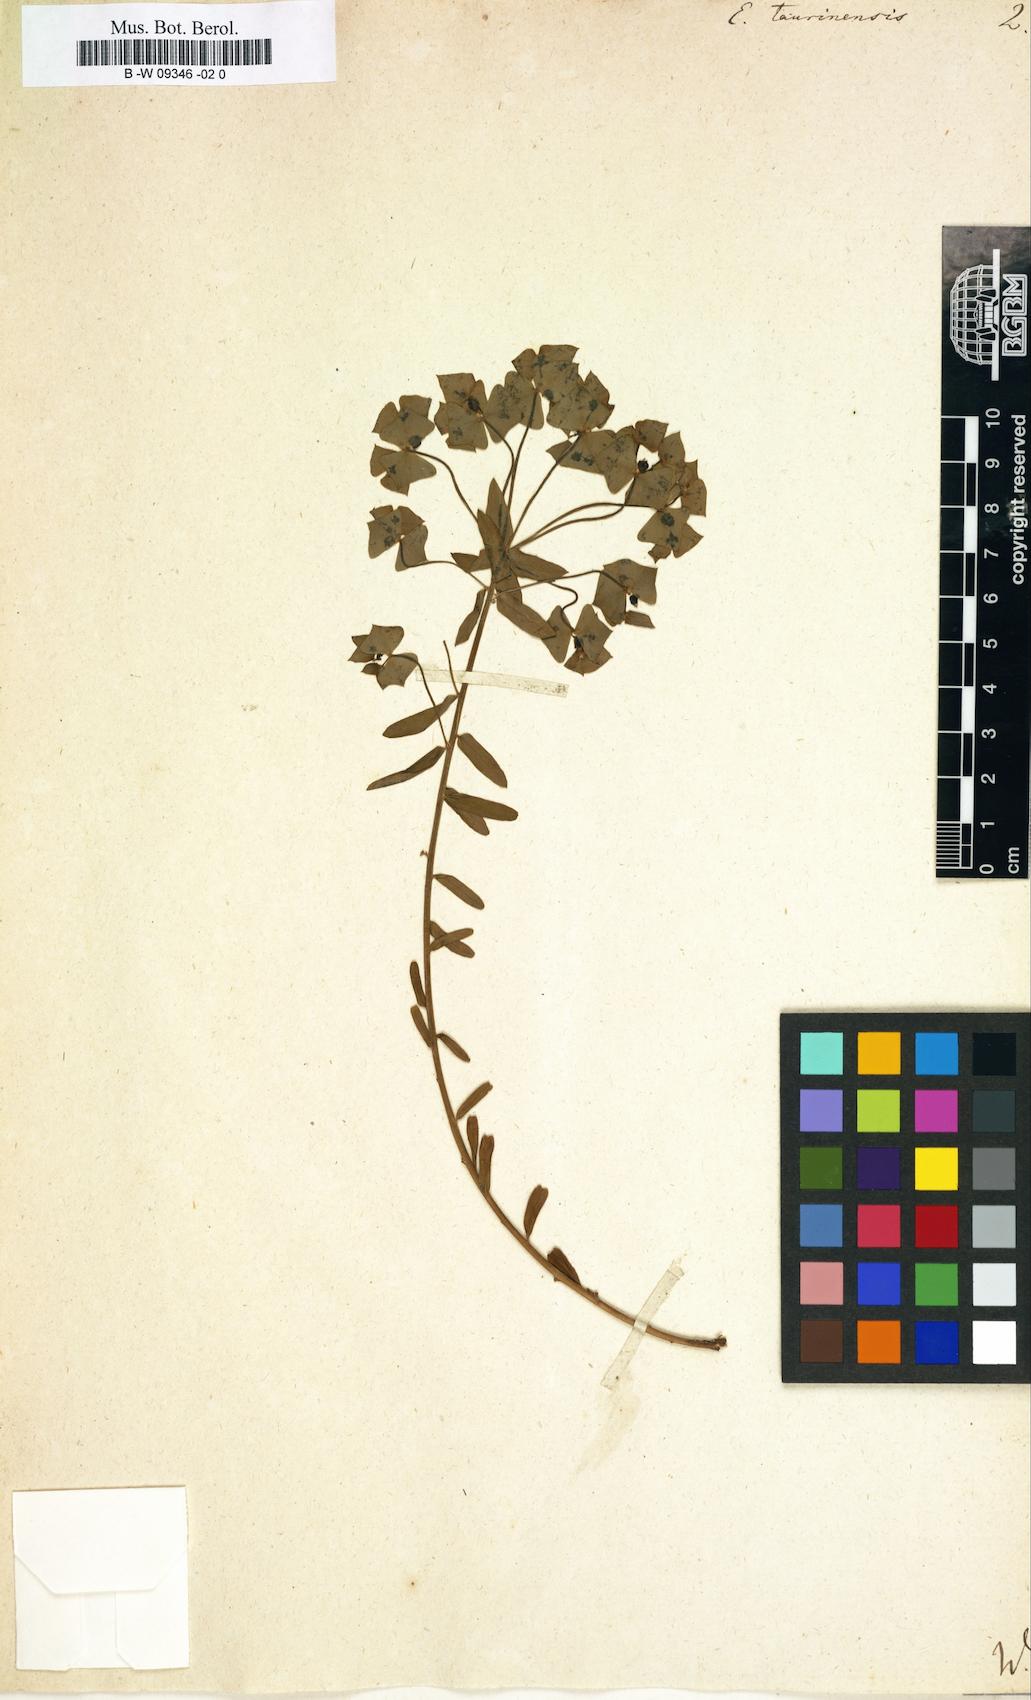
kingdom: Plantae
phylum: Tracheophyta
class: Magnoliopsida
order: Malpighiales
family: Euphorbiaceae
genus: Euphorbia
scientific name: Euphorbia taurinensis
